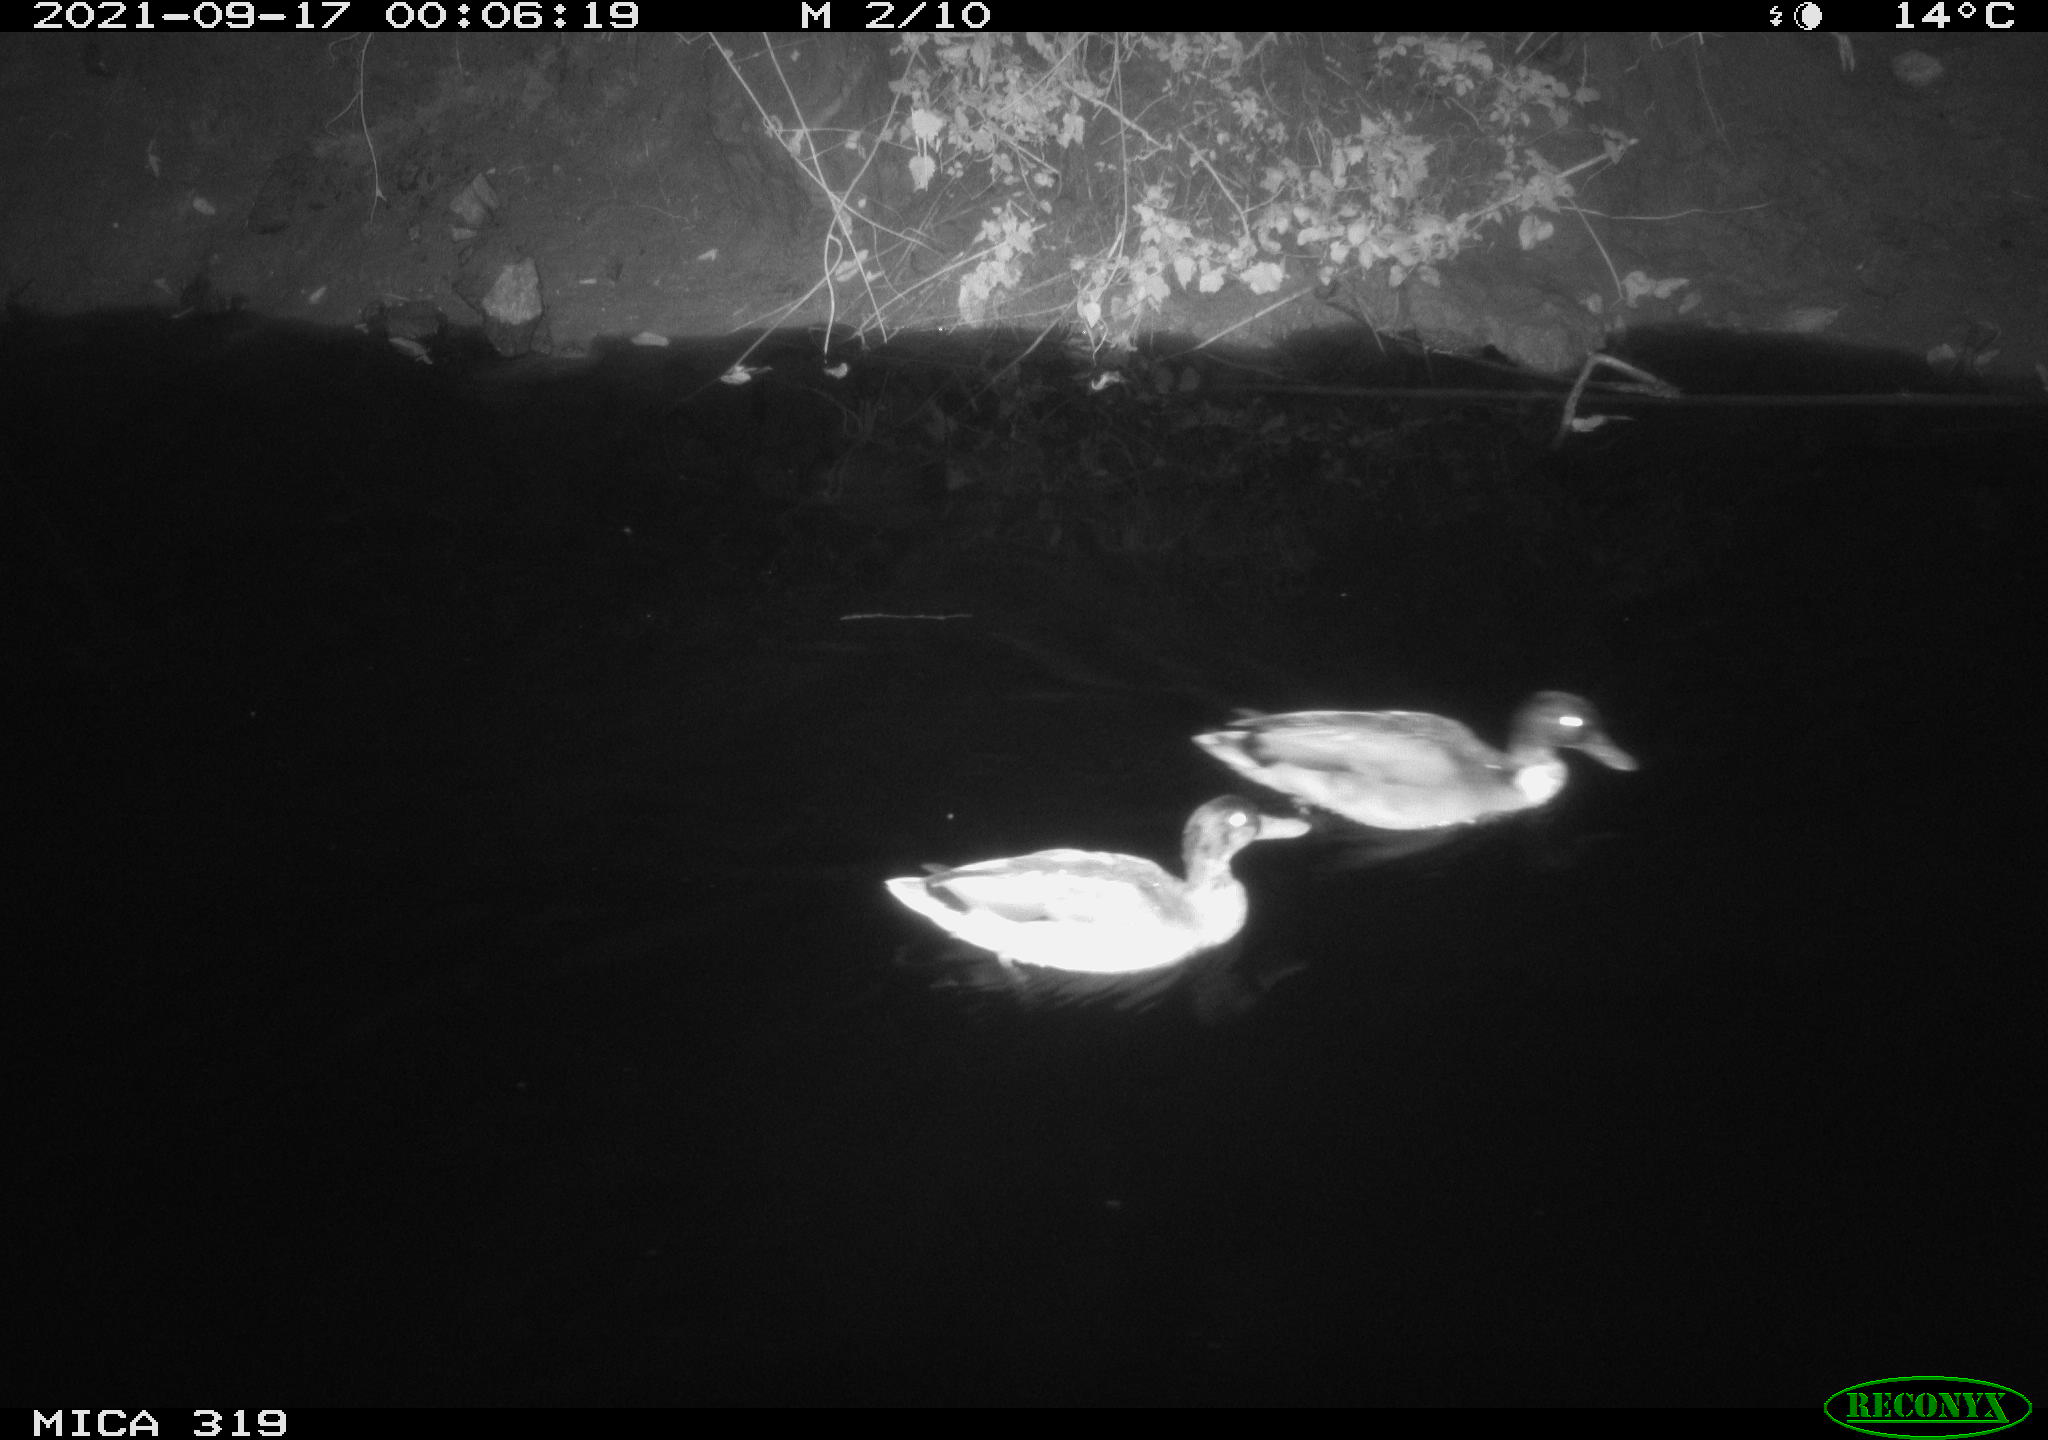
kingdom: Animalia
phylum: Chordata
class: Aves
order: Anseriformes
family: Anatidae
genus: Anas
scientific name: Anas platyrhynchos
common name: Mallard
